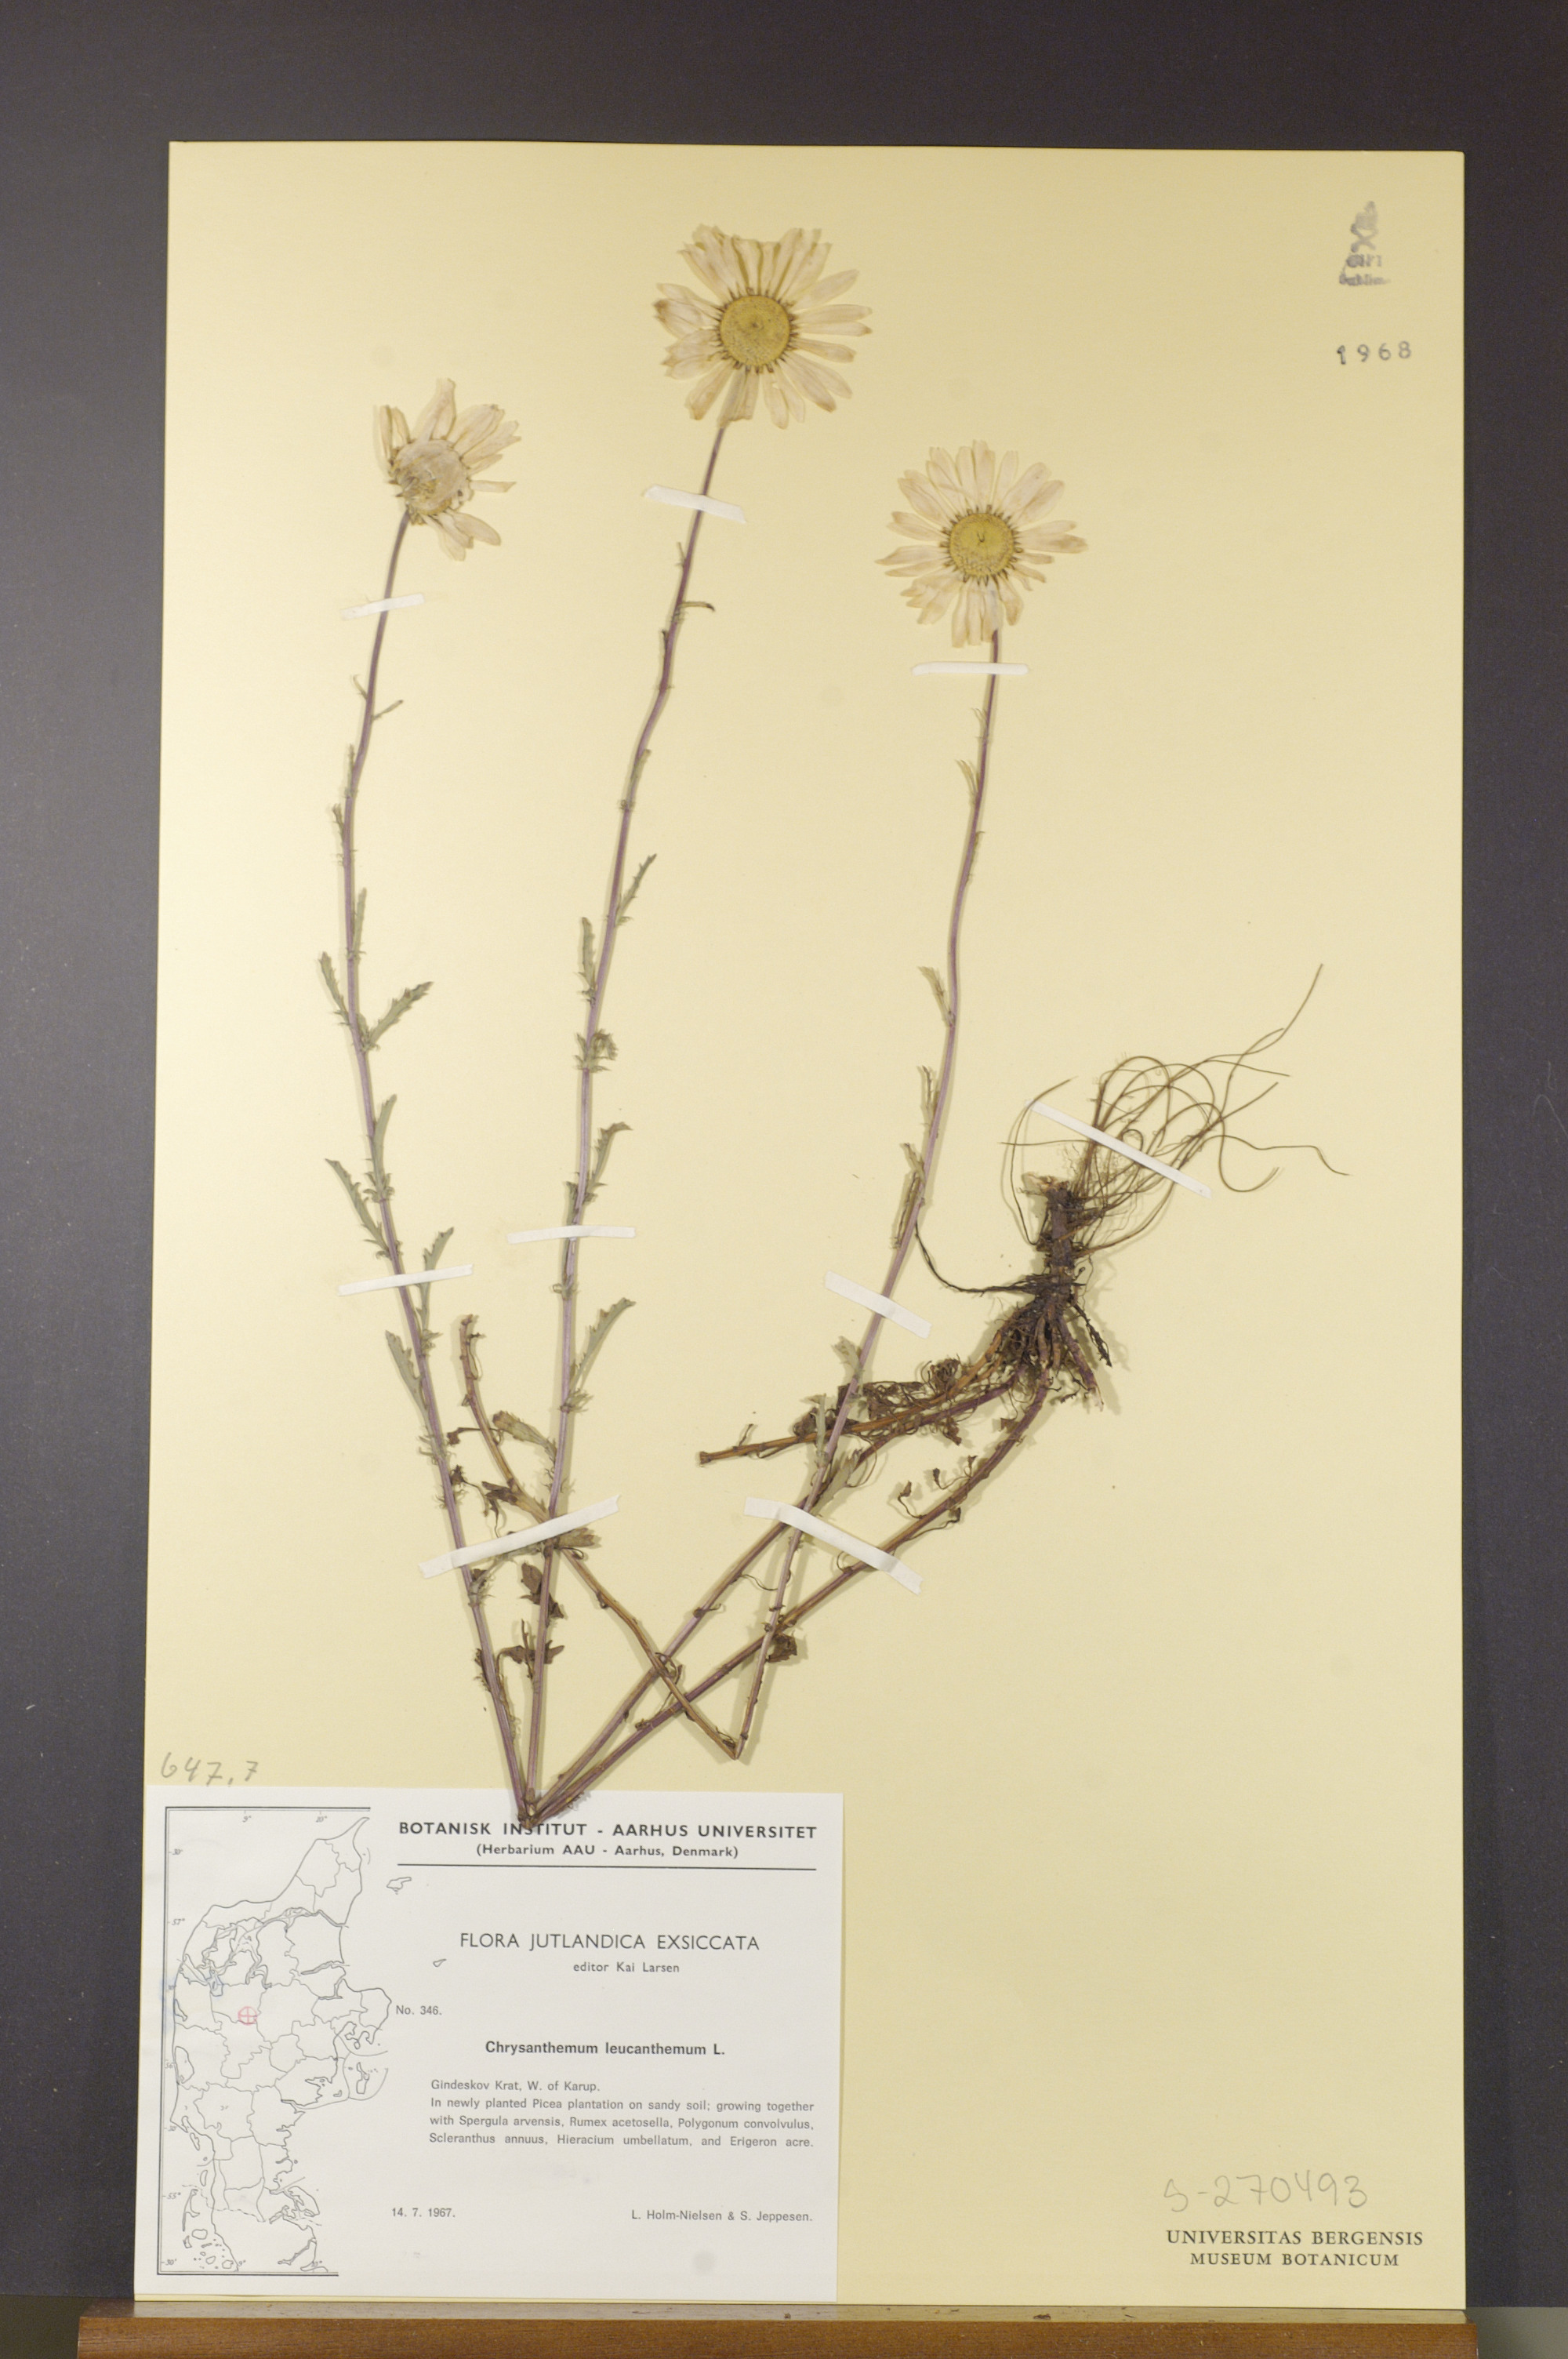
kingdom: Plantae
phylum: Tracheophyta
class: Magnoliopsida
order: Asterales
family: Asteraceae
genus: Leucanthemum
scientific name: Leucanthemum vulgare
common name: Oxeye daisy
